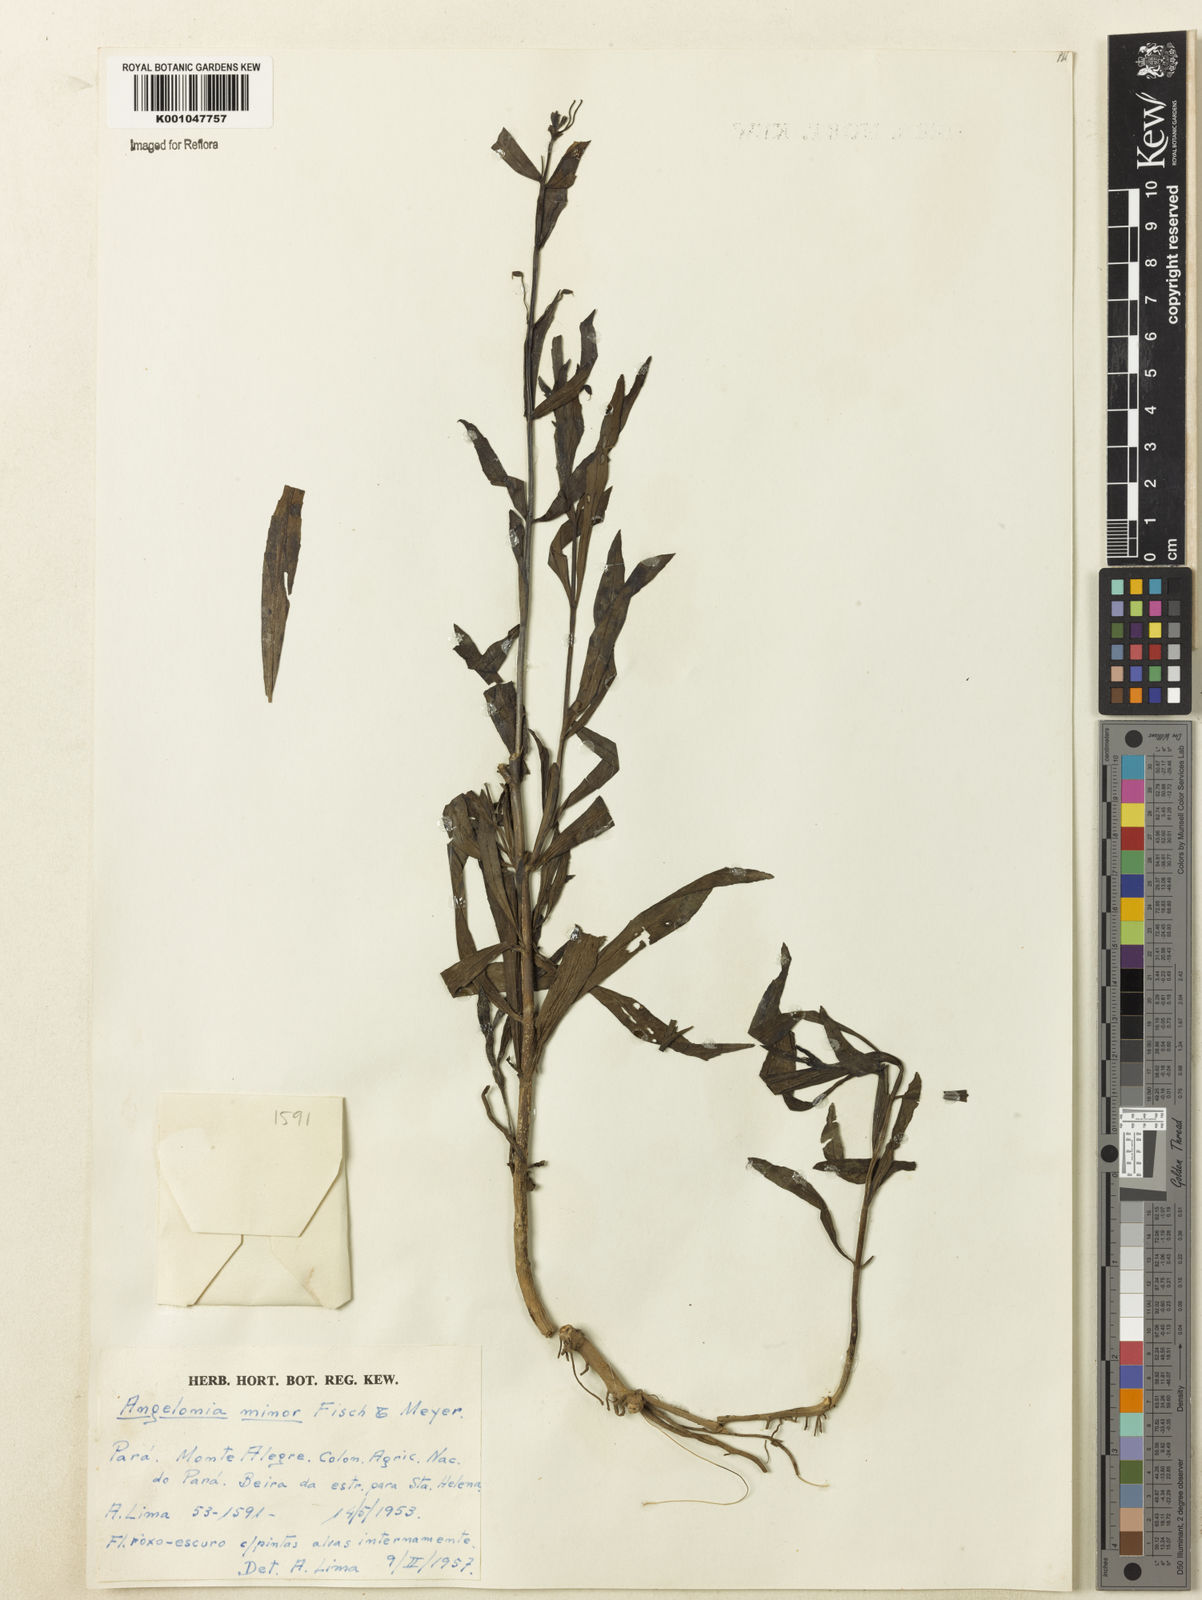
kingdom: Plantae
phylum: Tracheophyta
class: Magnoliopsida
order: Lamiales
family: Plantaginaceae
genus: Angelonia
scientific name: Angelonia minor
